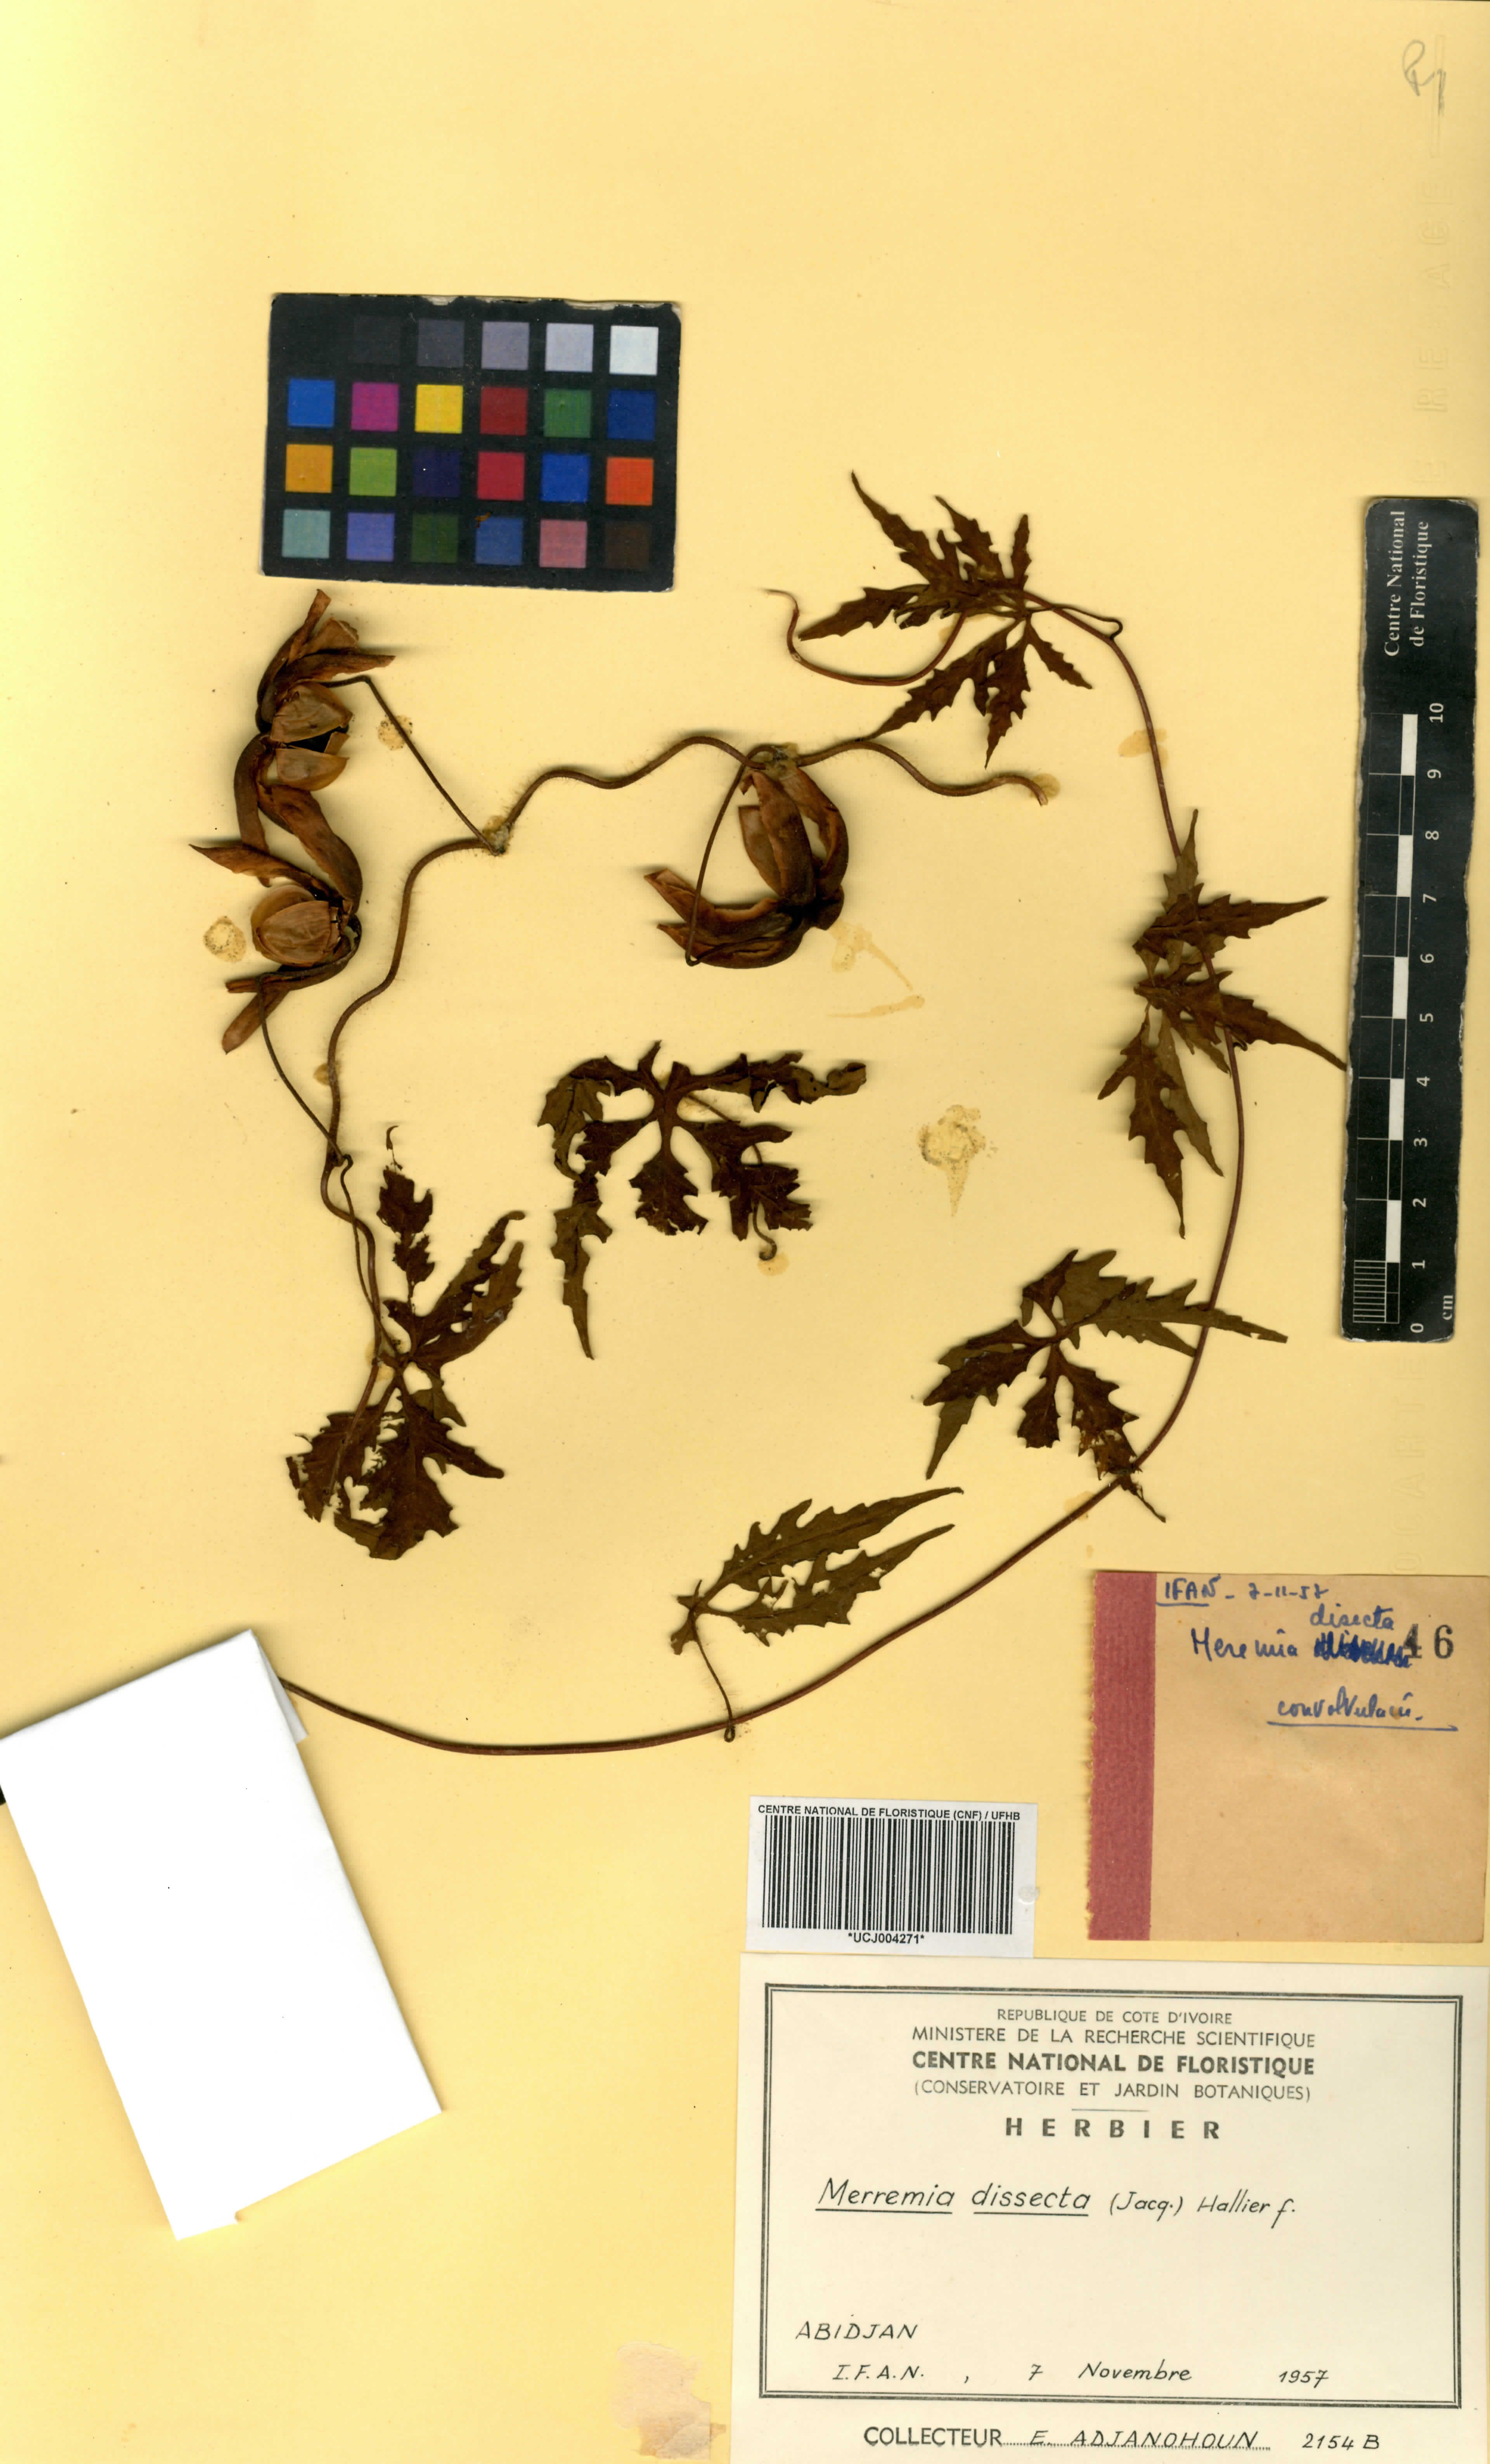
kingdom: Plantae
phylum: Tracheophyta
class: Magnoliopsida
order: Solanales
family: Convolvulaceae
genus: Distimake
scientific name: Distimake dissectus
